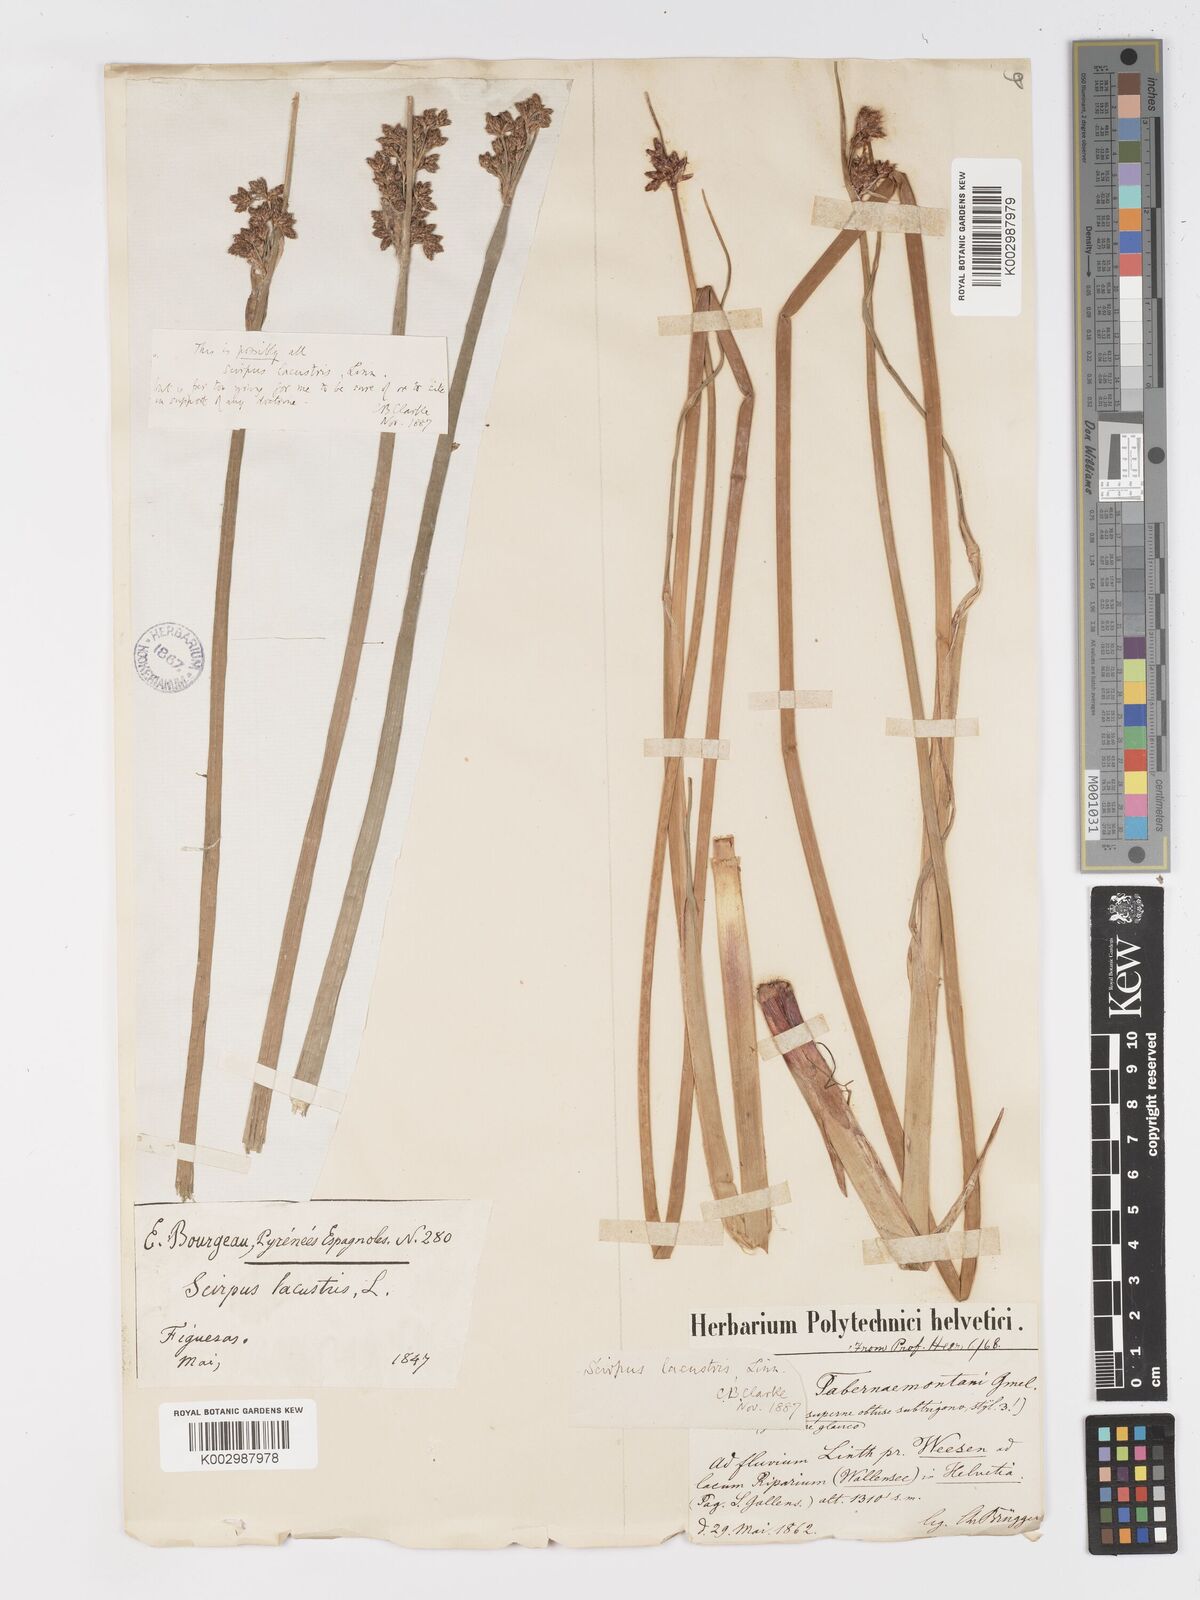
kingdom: Plantae
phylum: Tracheophyta
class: Liliopsida
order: Poales
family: Cyperaceae
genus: Schoenoplectus
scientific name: Schoenoplectus tabernaemontani
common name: Grey club-rush
